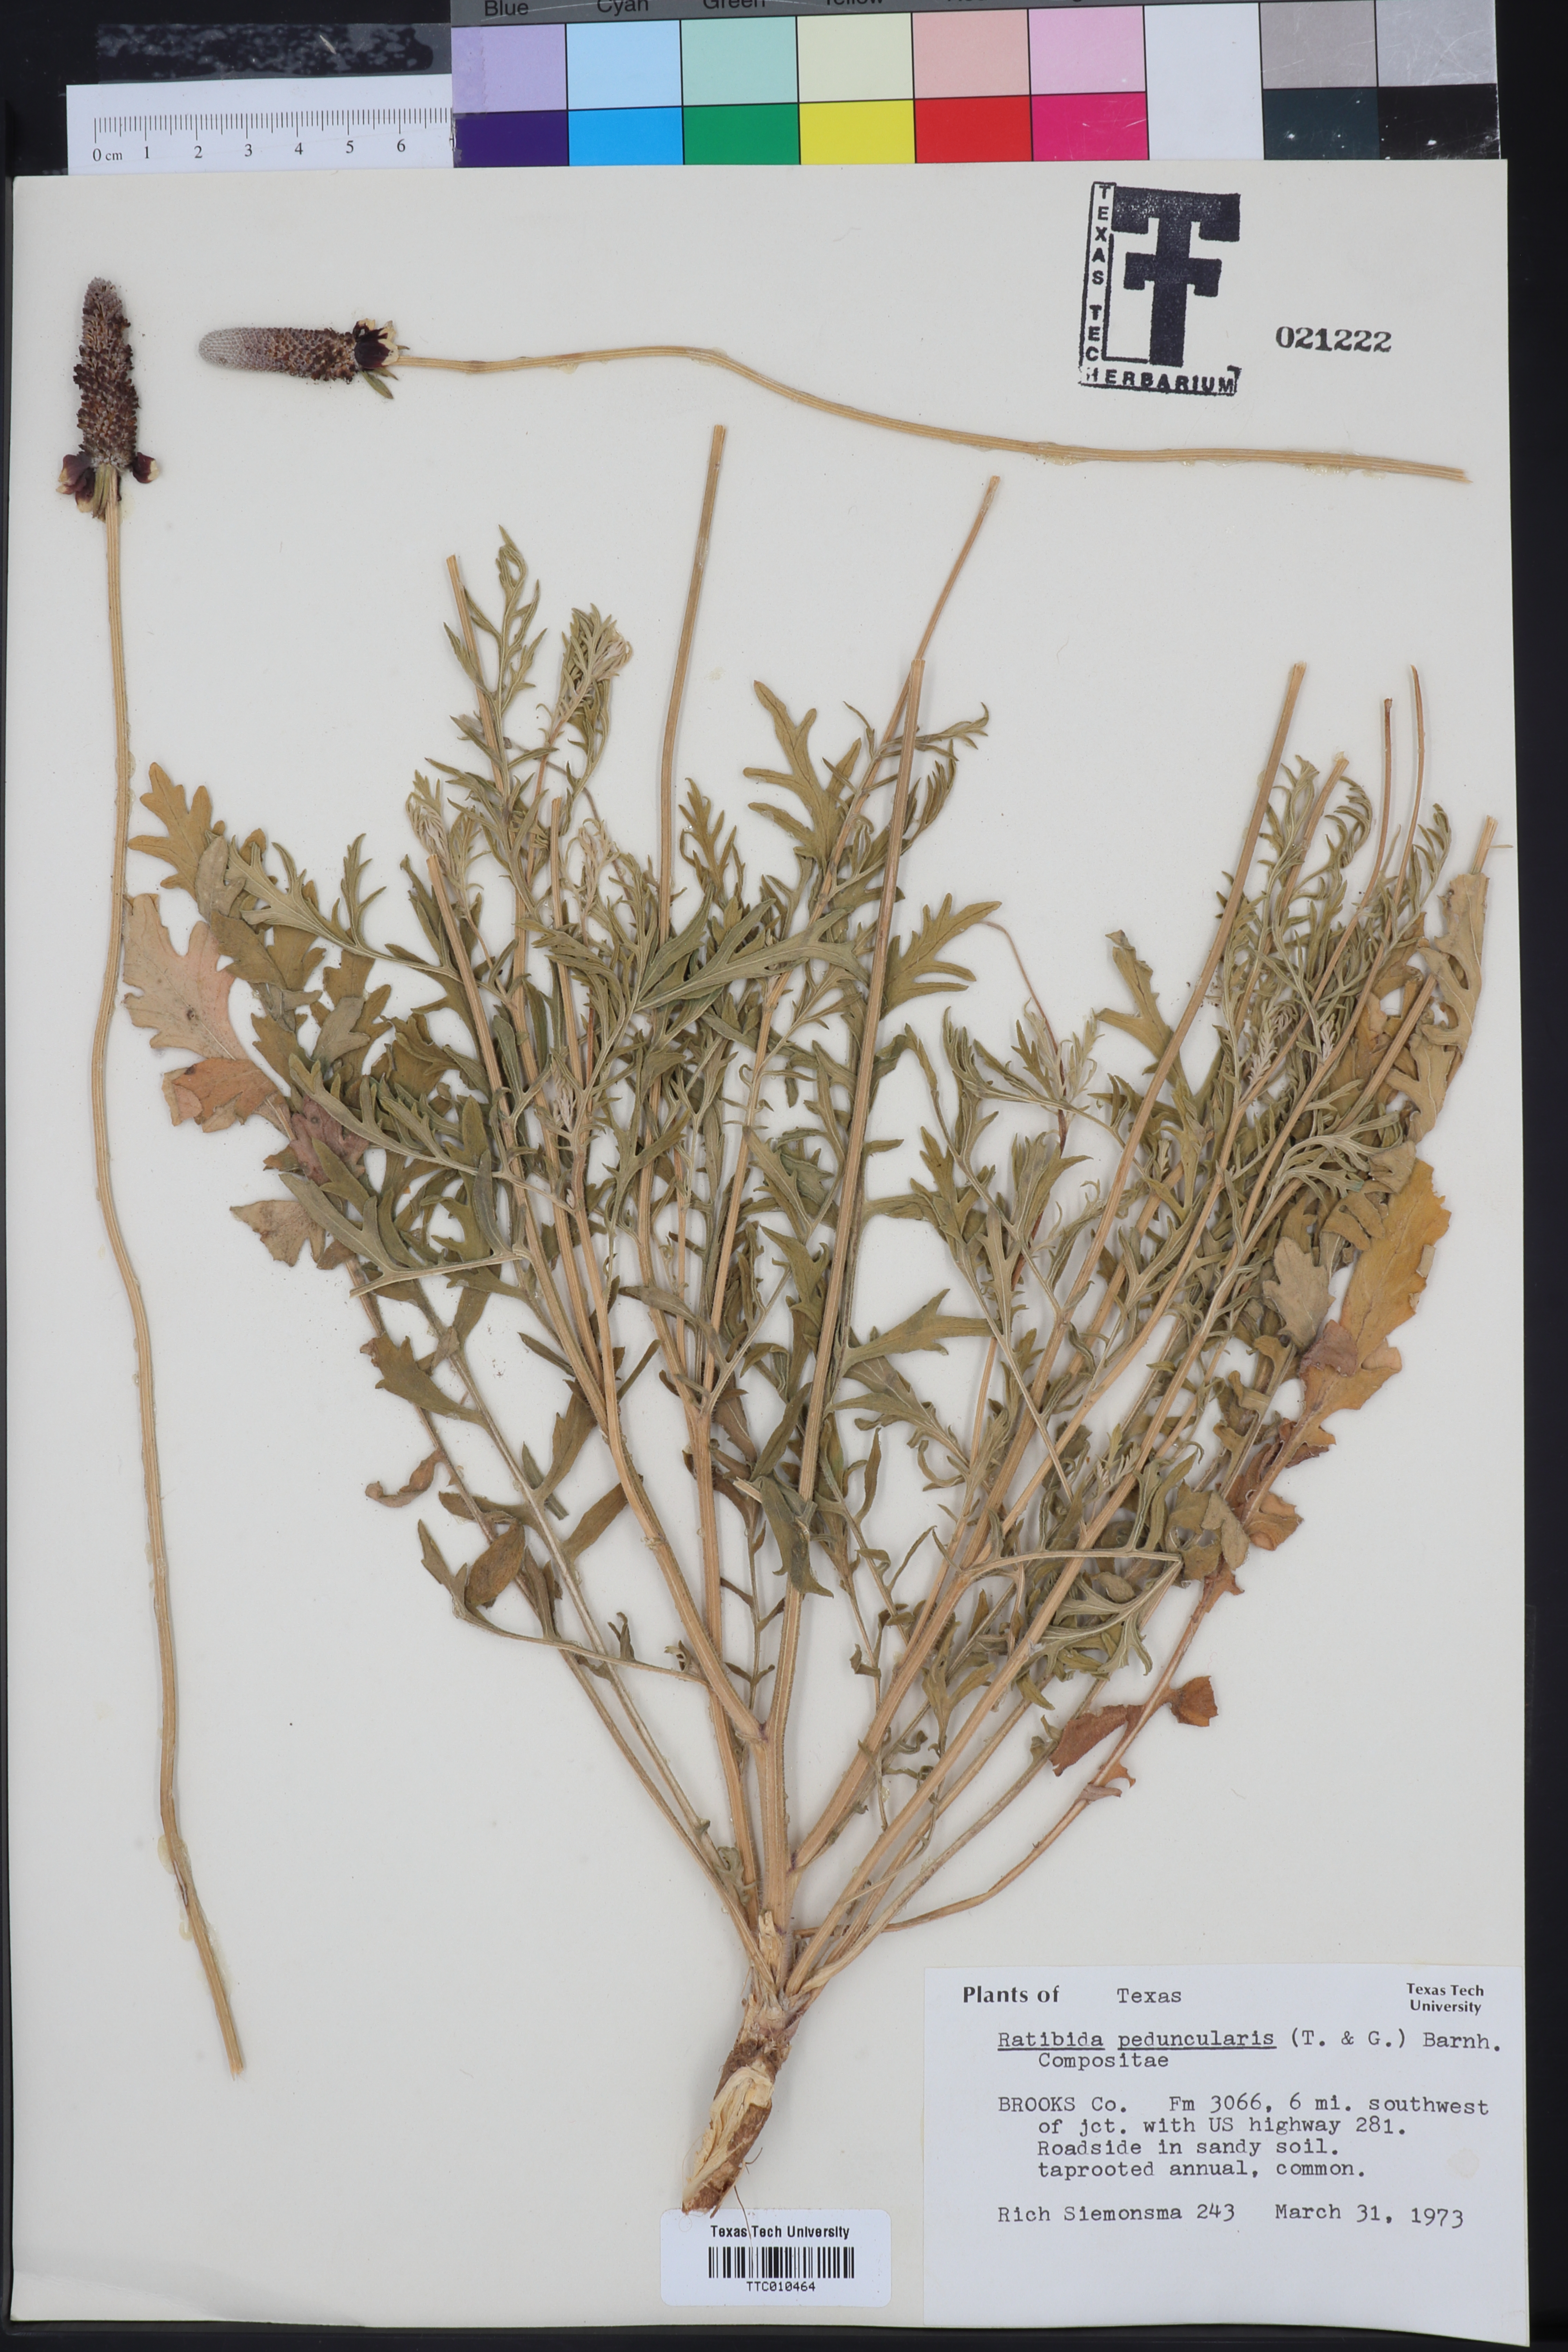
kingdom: Plantae
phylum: Tracheophyta
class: Magnoliopsida
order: Asterales
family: Asteraceae
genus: Ratibida
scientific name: Ratibida peduncularis
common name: Naked prairie-coneflower
